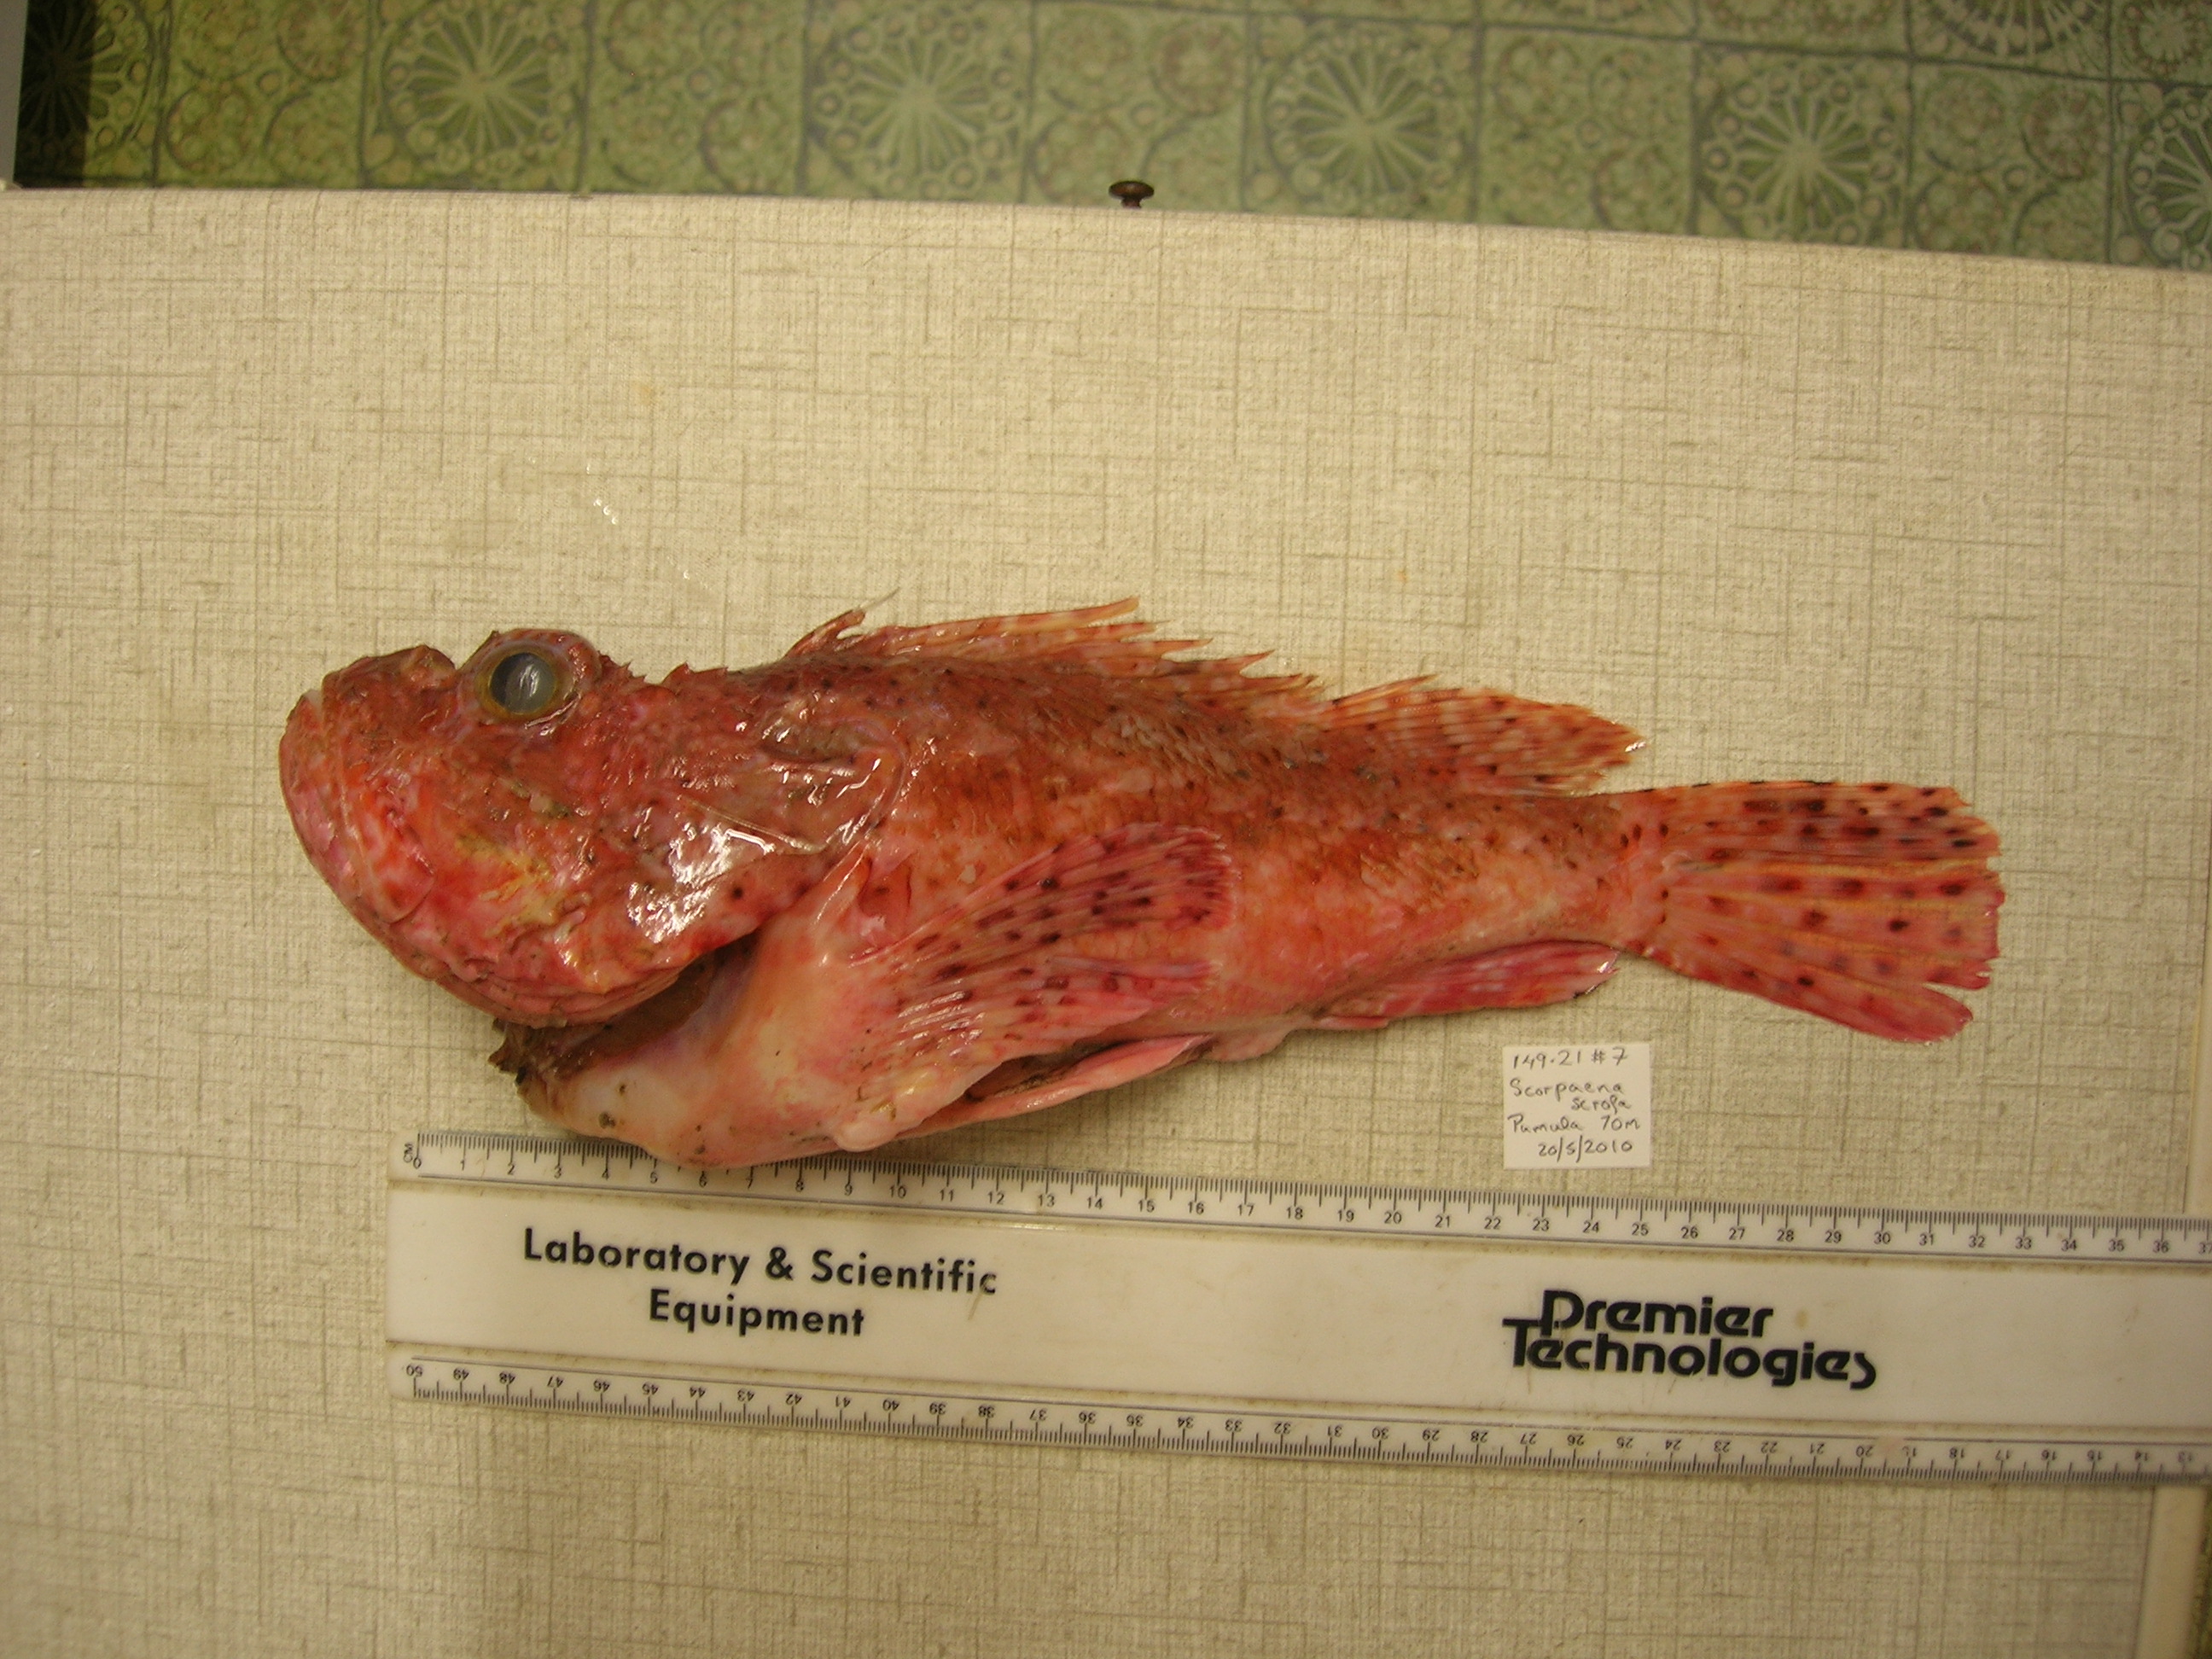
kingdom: Animalia
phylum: Chordata
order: Scorpaeniformes
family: Scorpaenidae
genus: Scorpaena
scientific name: Scorpaena scrofa
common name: Red scorpionfish
